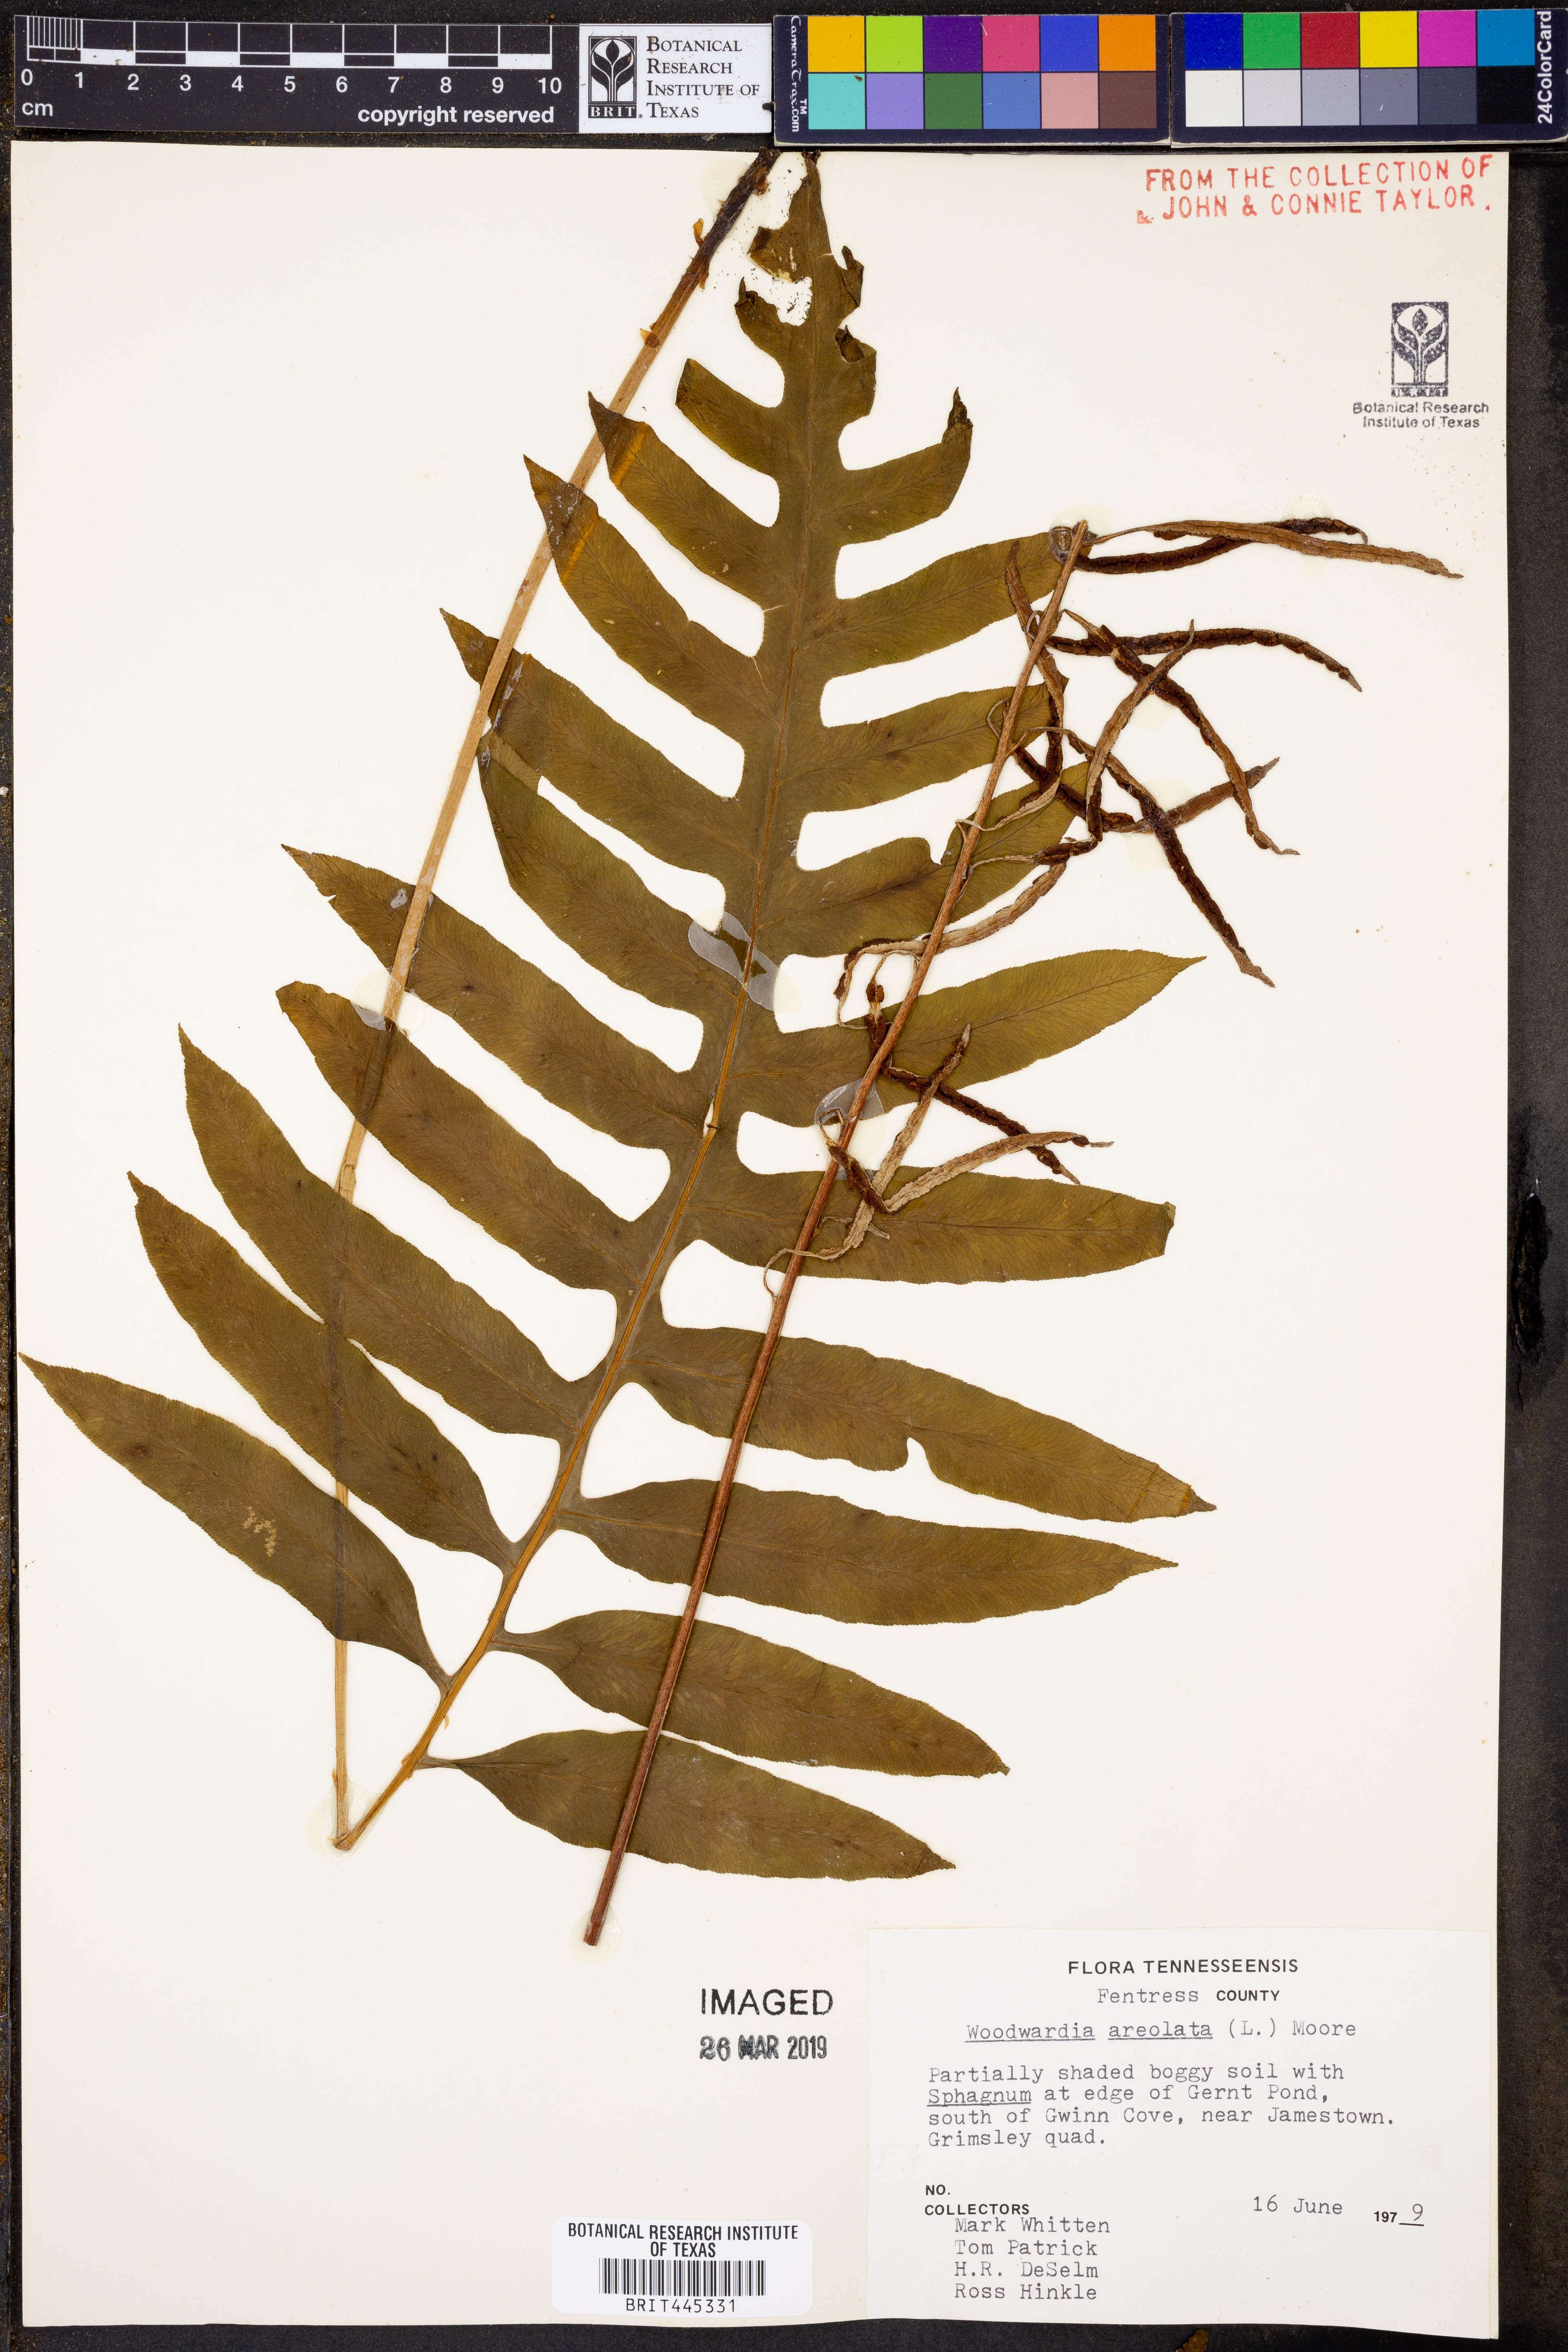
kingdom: Plantae
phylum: Tracheophyta
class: Polypodiopsida
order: Polypodiales
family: Blechnaceae
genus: Lorinseria
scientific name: Lorinseria areolata
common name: Dwarf chain fern
